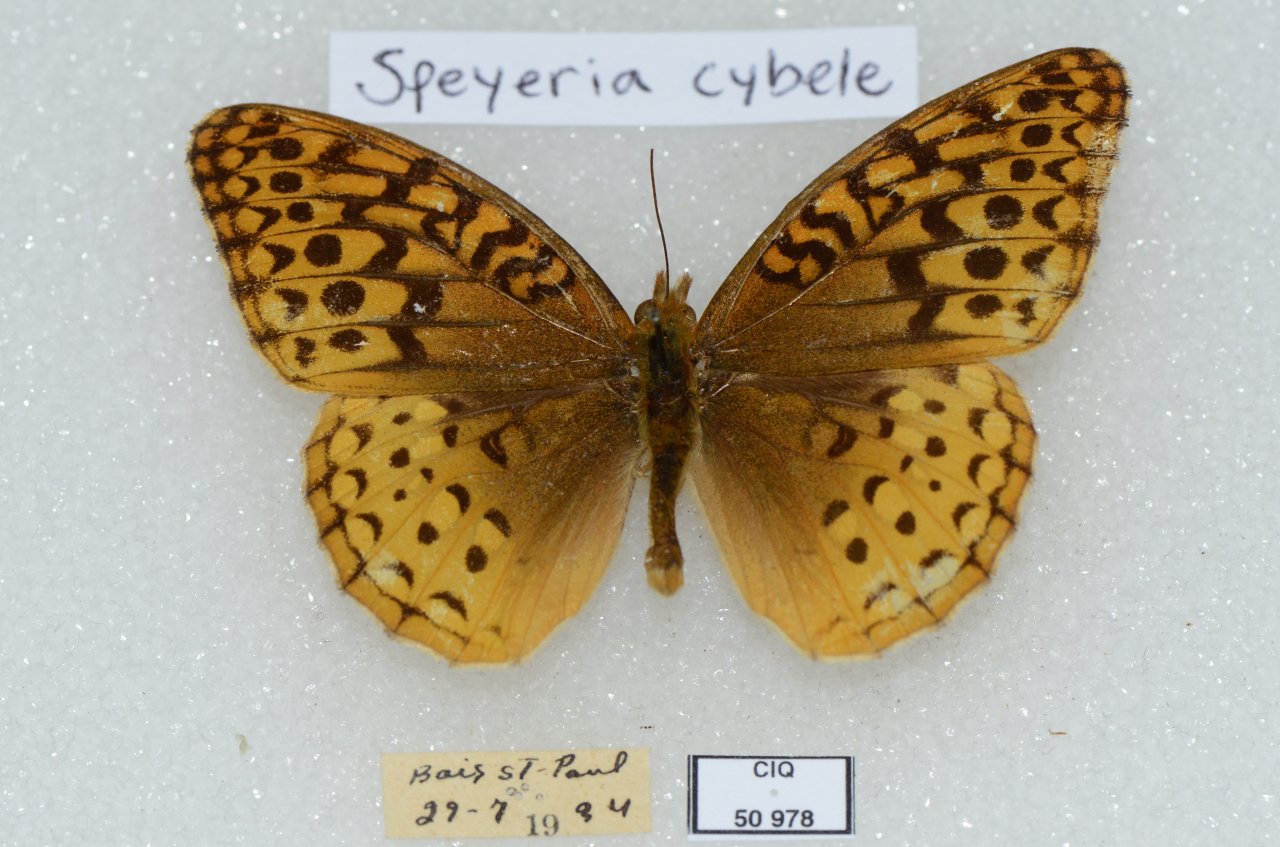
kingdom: Animalia
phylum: Arthropoda
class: Insecta
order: Lepidoptera
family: Nymphalidae
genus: Speyeria
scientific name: Speyeria cybele
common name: Great Spangled Fritillary
